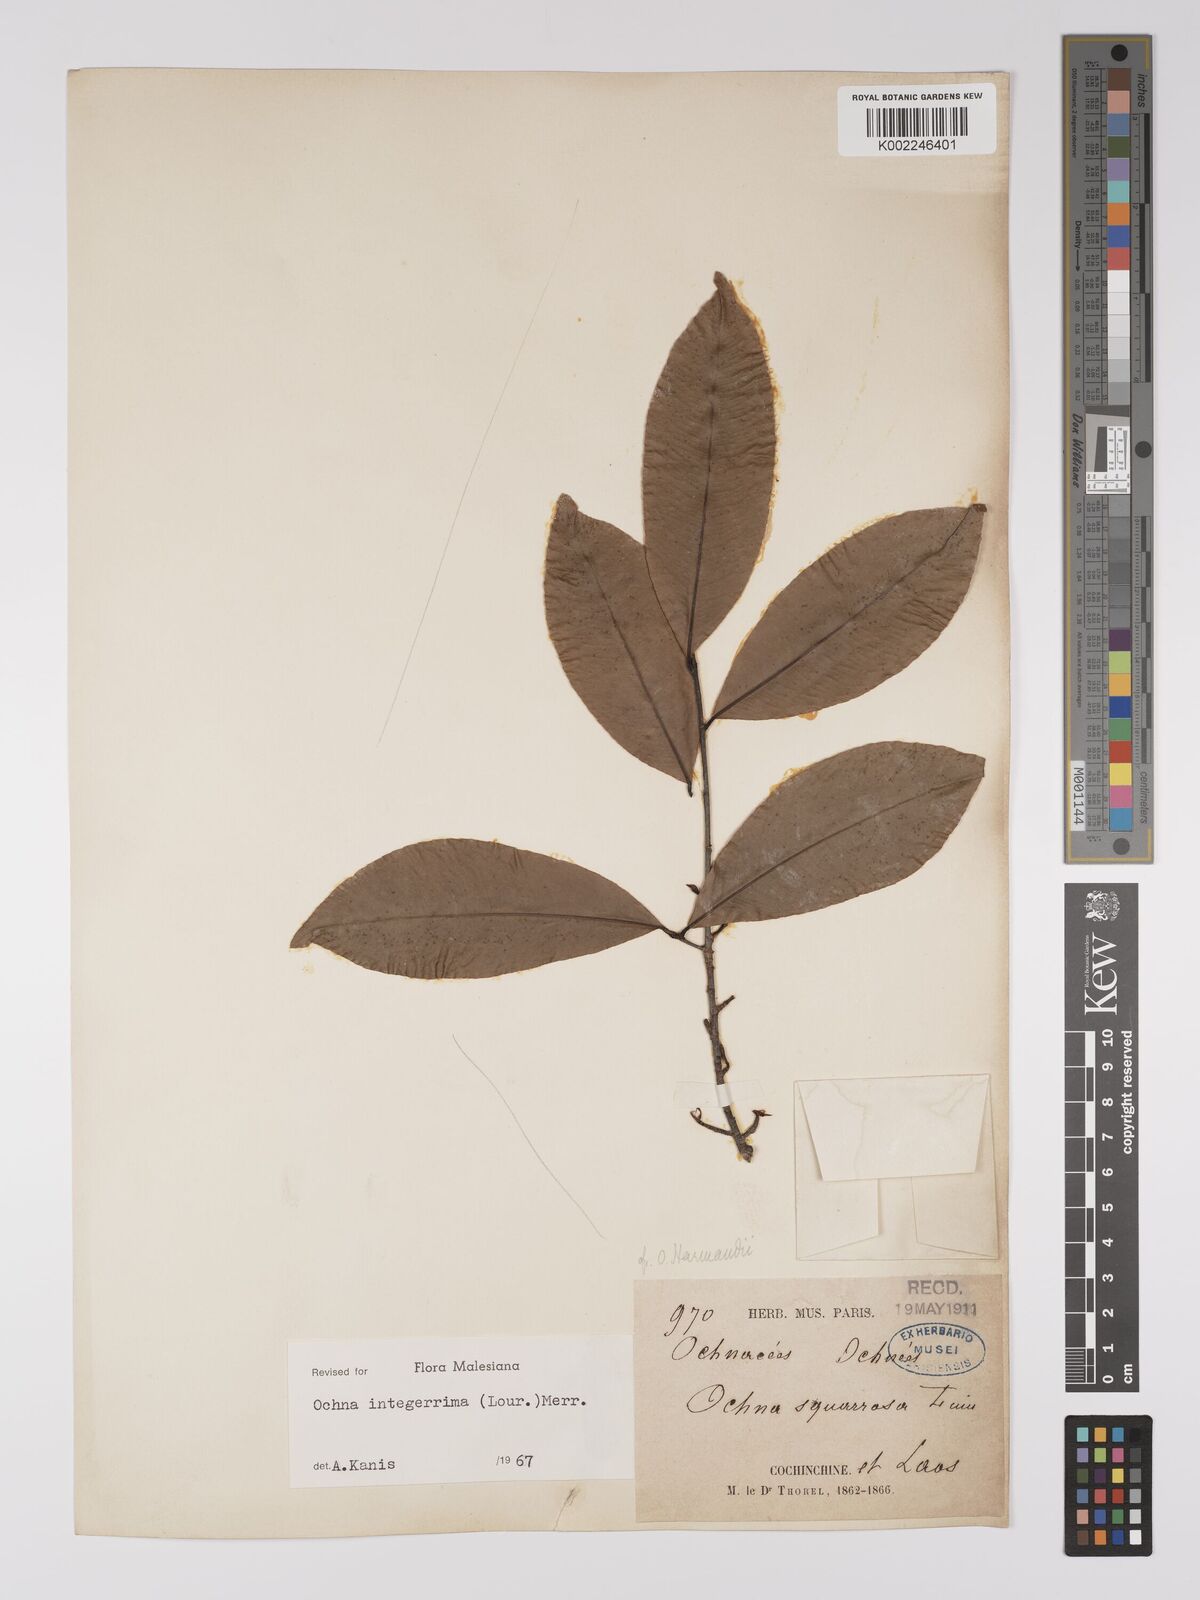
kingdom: Plantae
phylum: Tracheophyta
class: Magnoliopsida
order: Malpighiales
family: Ochnaceae
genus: Ochna
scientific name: Ochna integerrima
